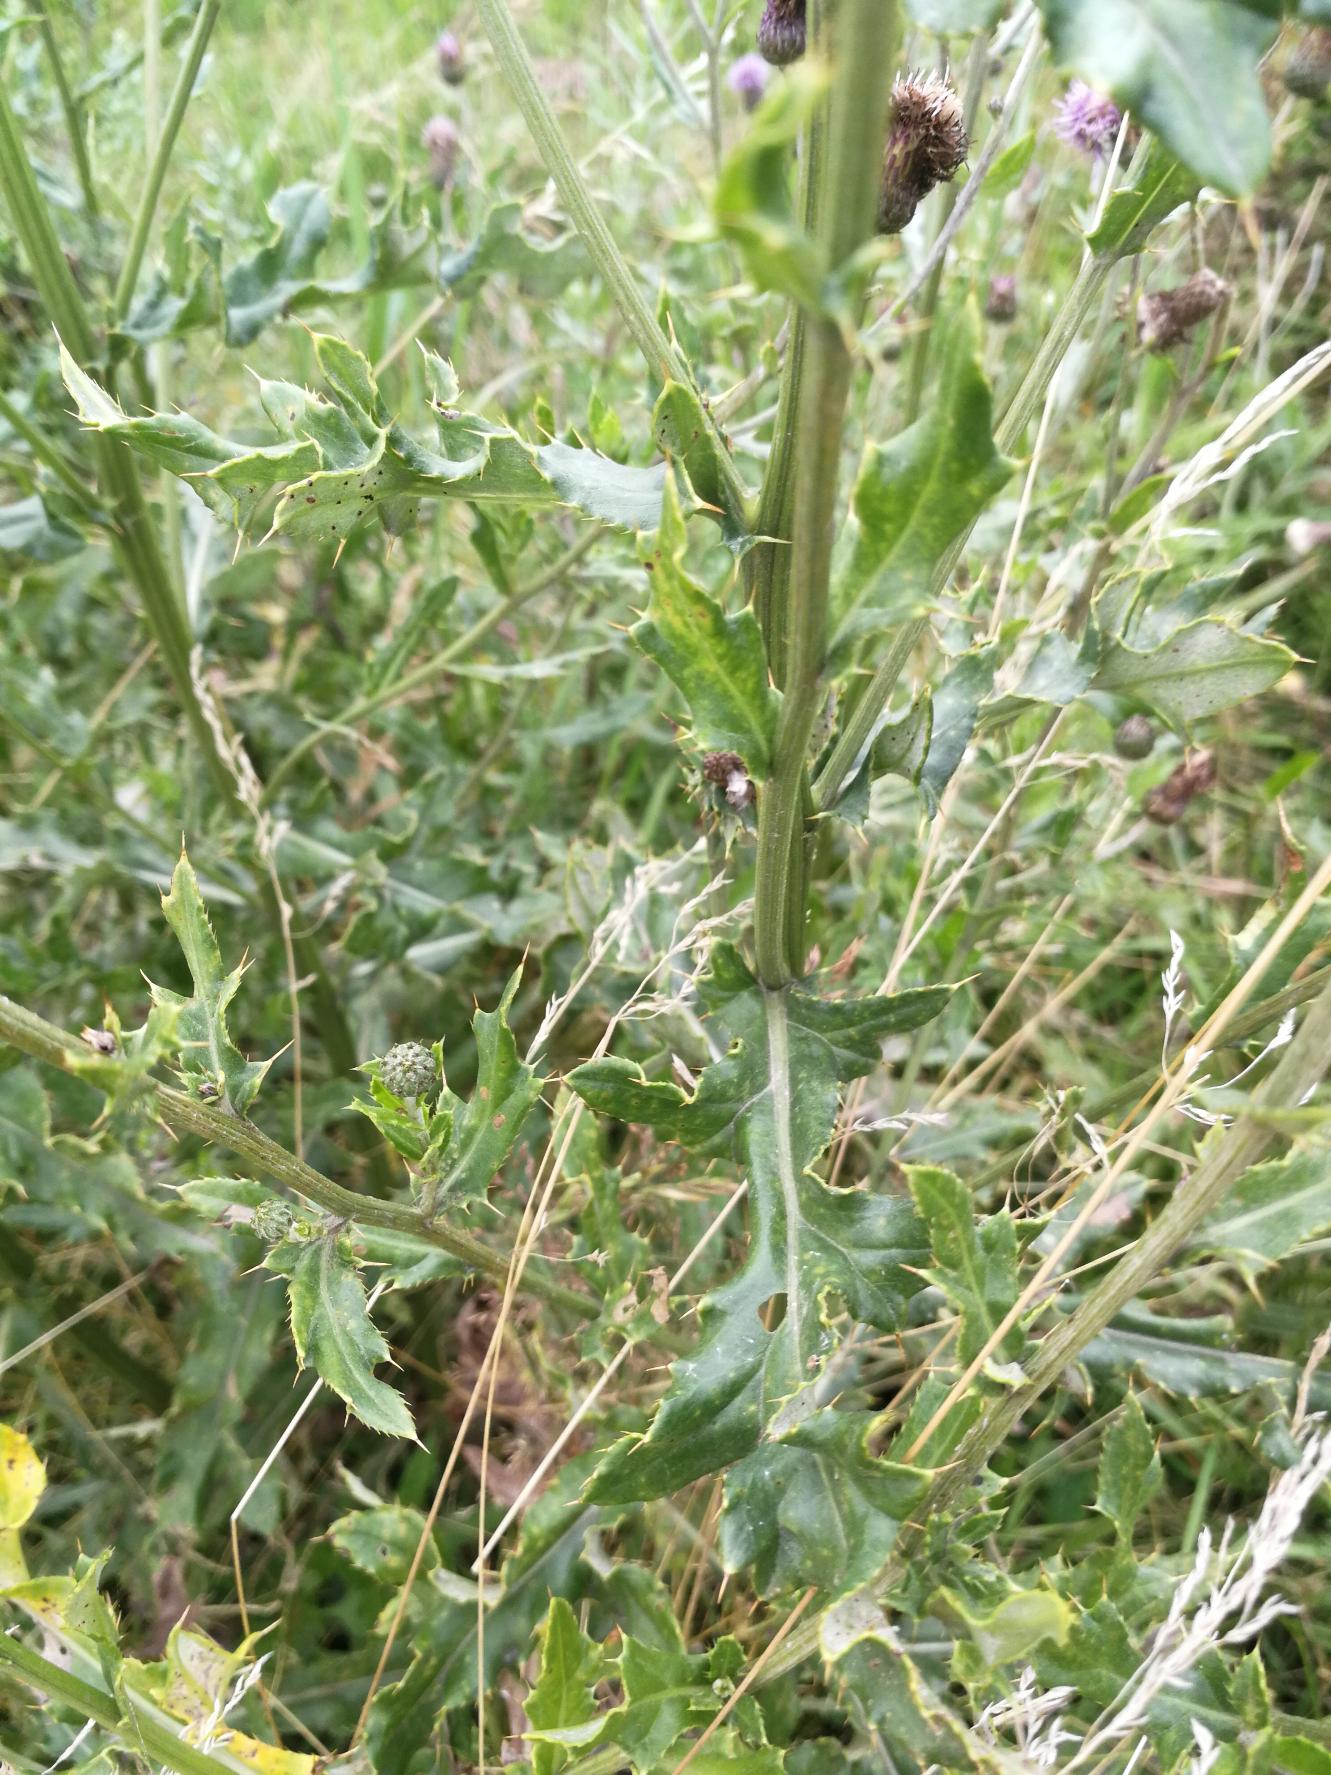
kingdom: Plantae
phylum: Tracheophyta
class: Magnoliopsida
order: Asterales
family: Asteraceae
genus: Cirsium
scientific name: Cirsium arvense
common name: Ager-tidsel
